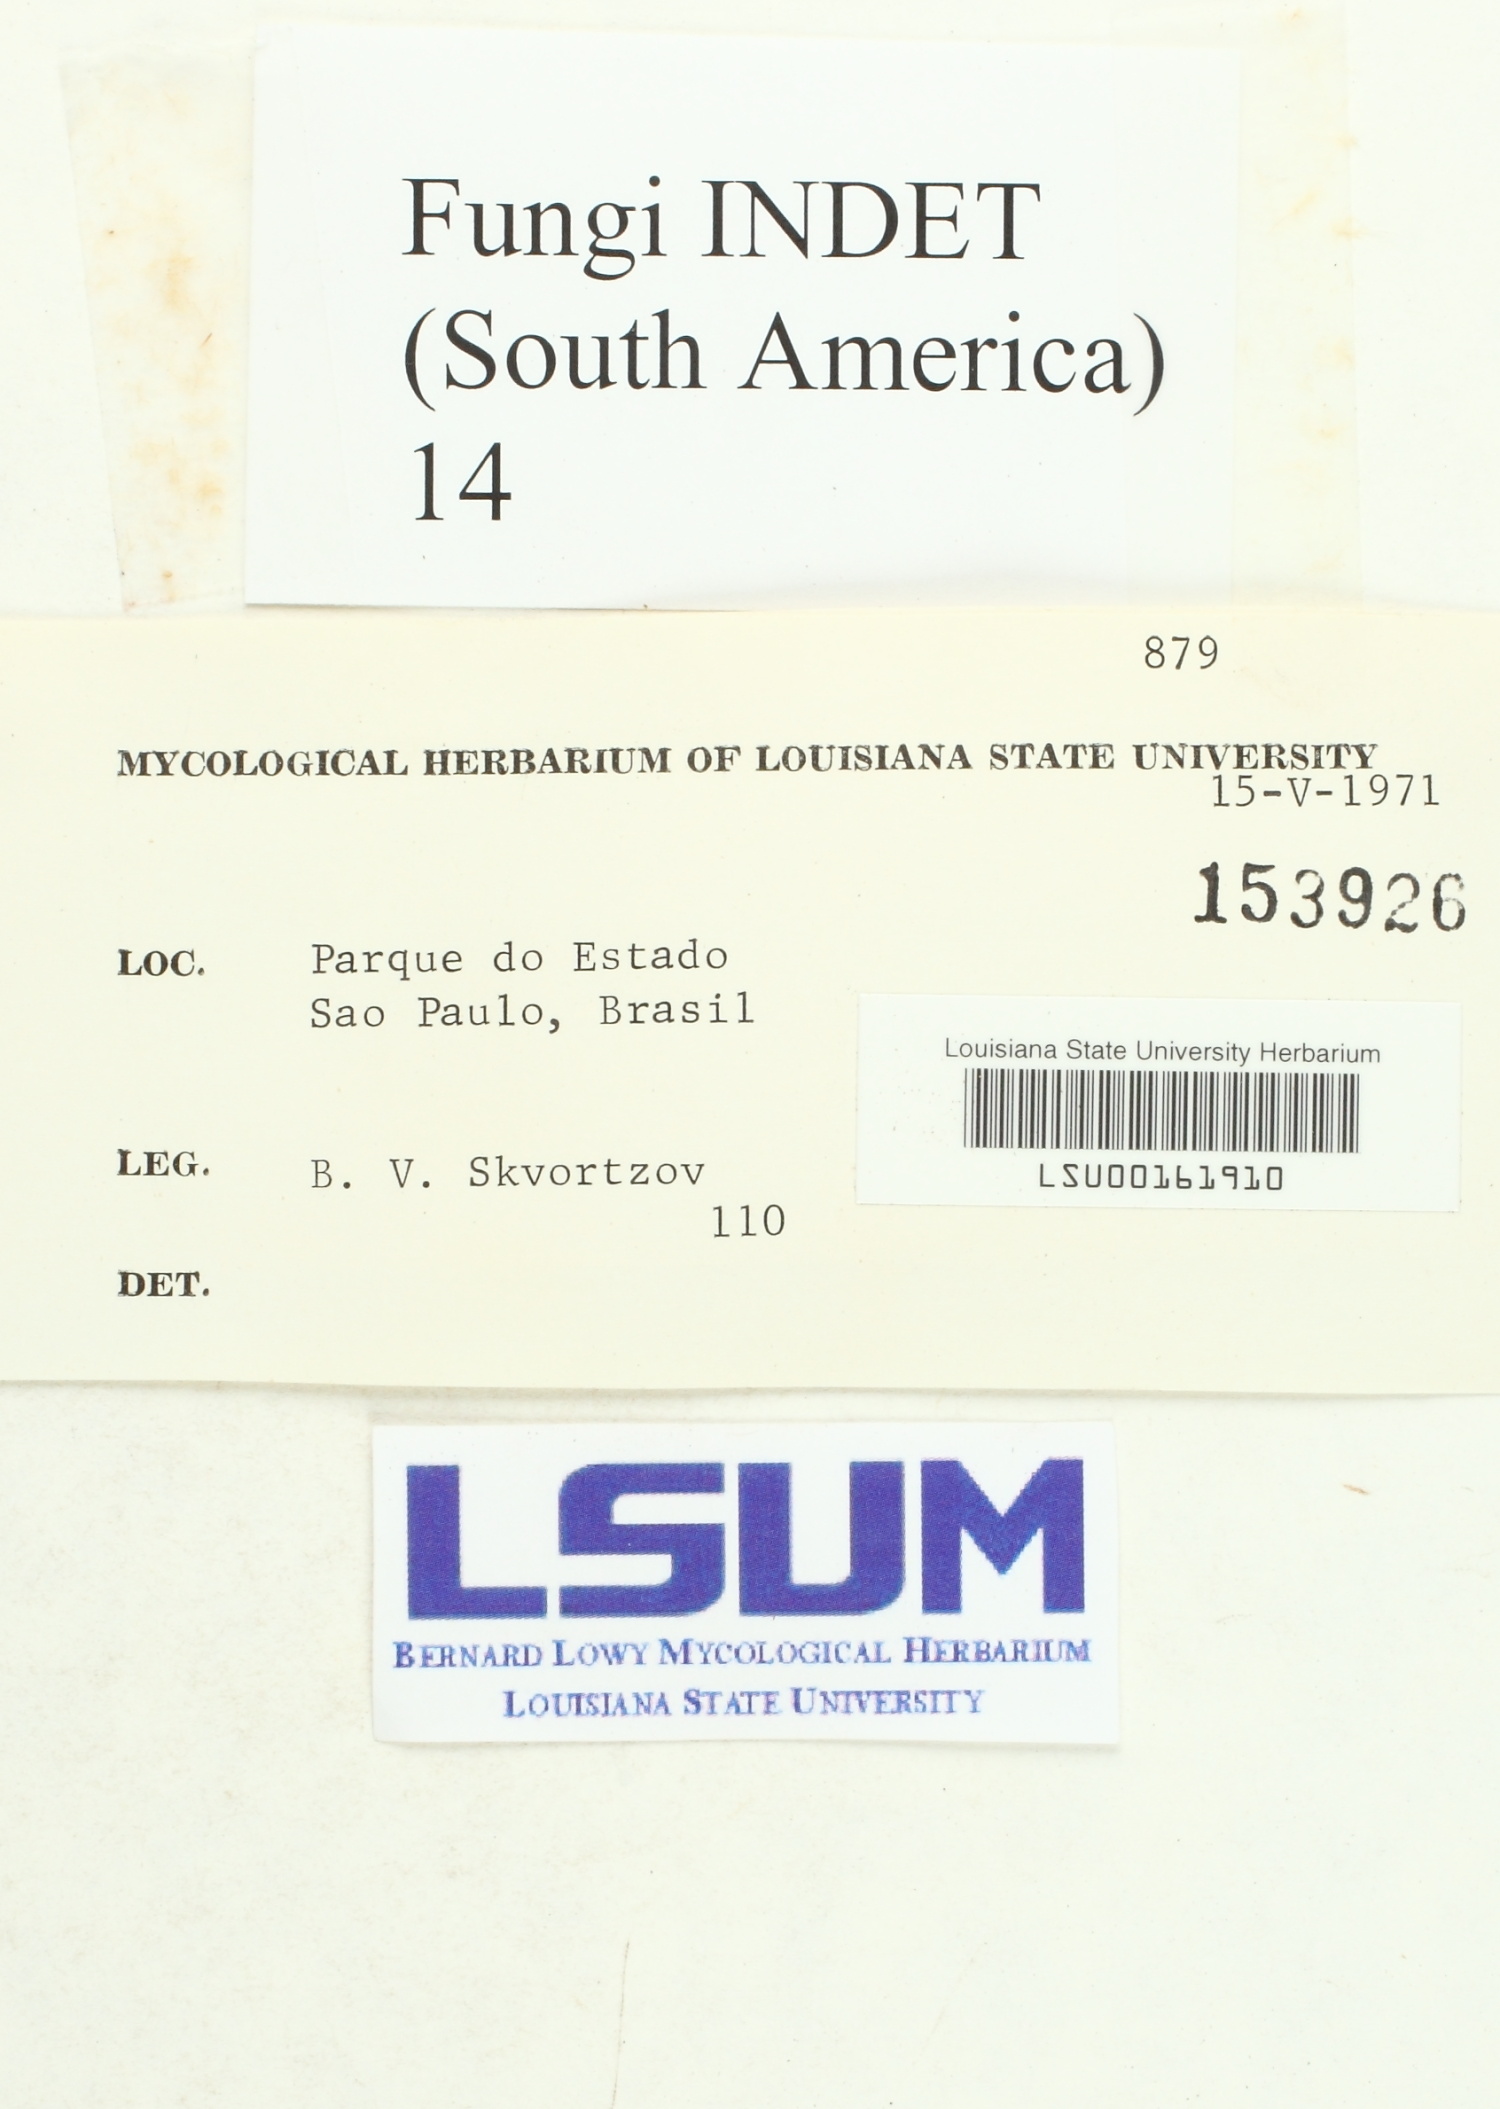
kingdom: Fungi
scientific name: Fungi
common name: Fungi
